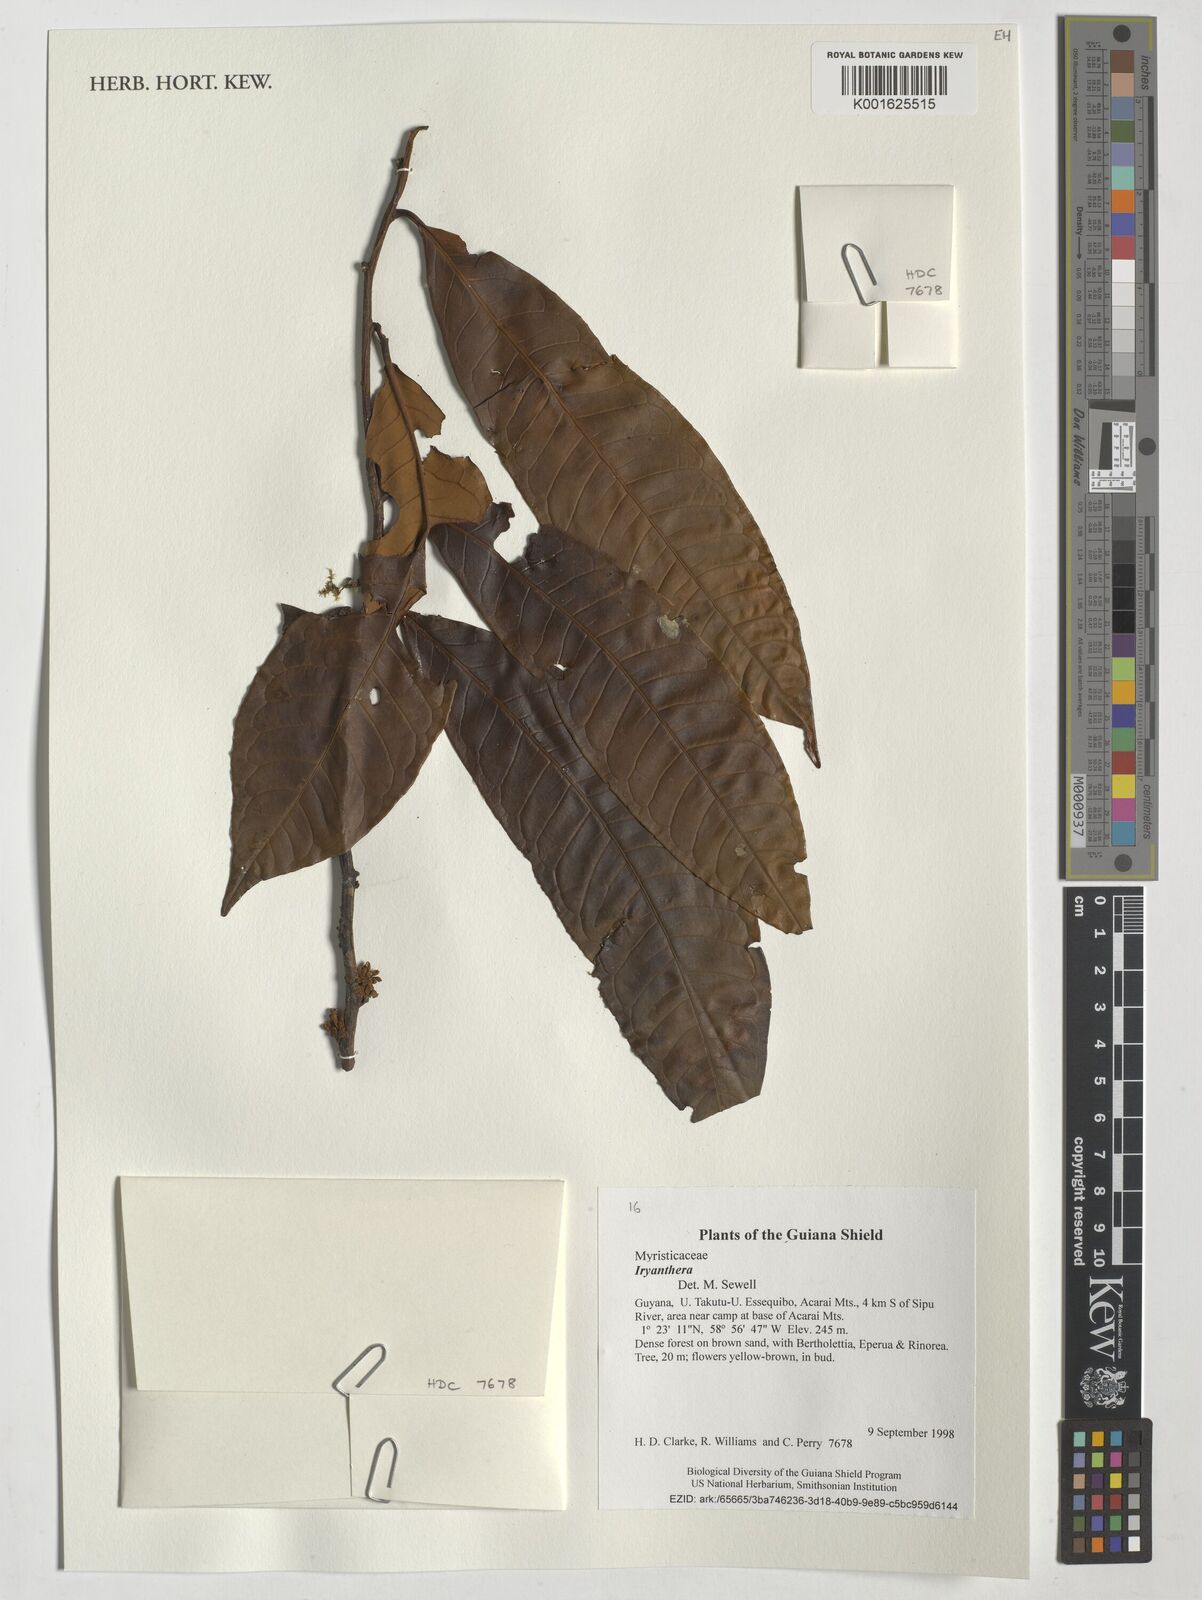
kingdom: Plantae
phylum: Tracheophyta
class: Magnoliopsida
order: Magnoliales
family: Myristicaceae
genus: Iryanthera
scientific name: Iryanthera
